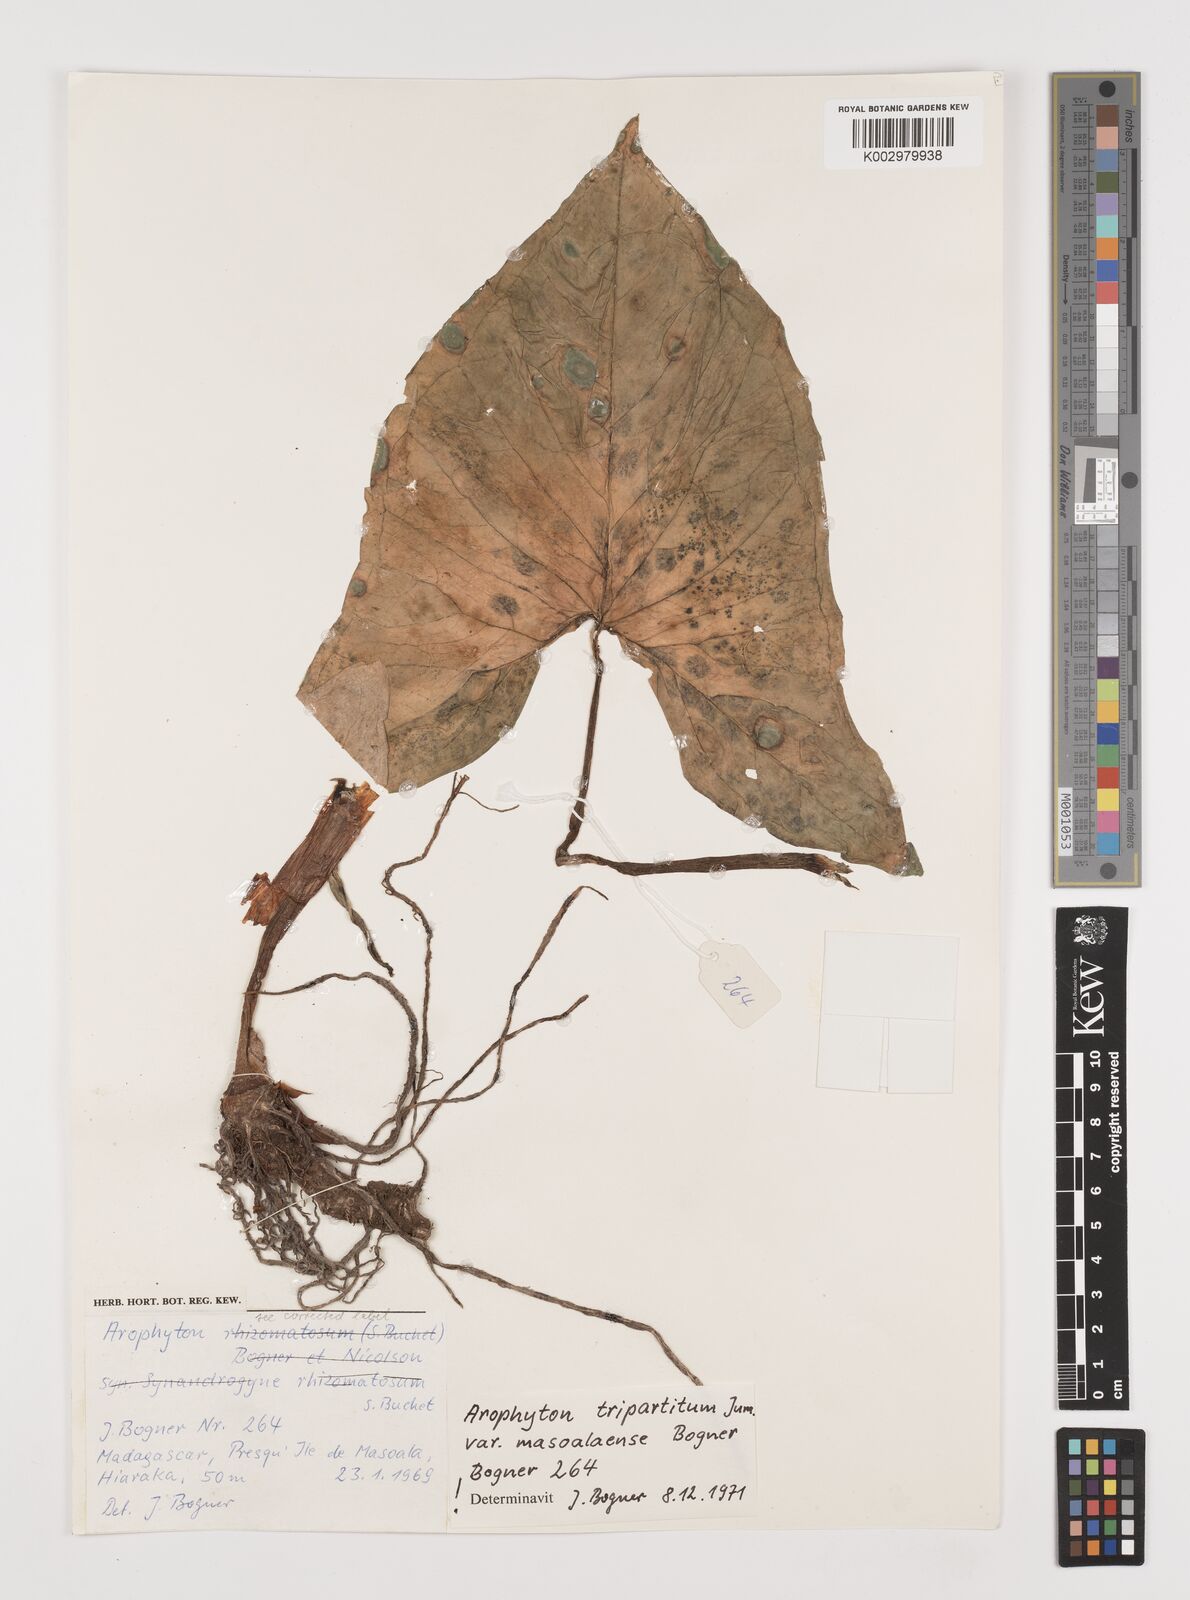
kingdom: Plantae
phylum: Tracheophyta
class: Liliopsida
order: Alismatales
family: Araceae
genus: Arophyton
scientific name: Arophyton tripartitum
